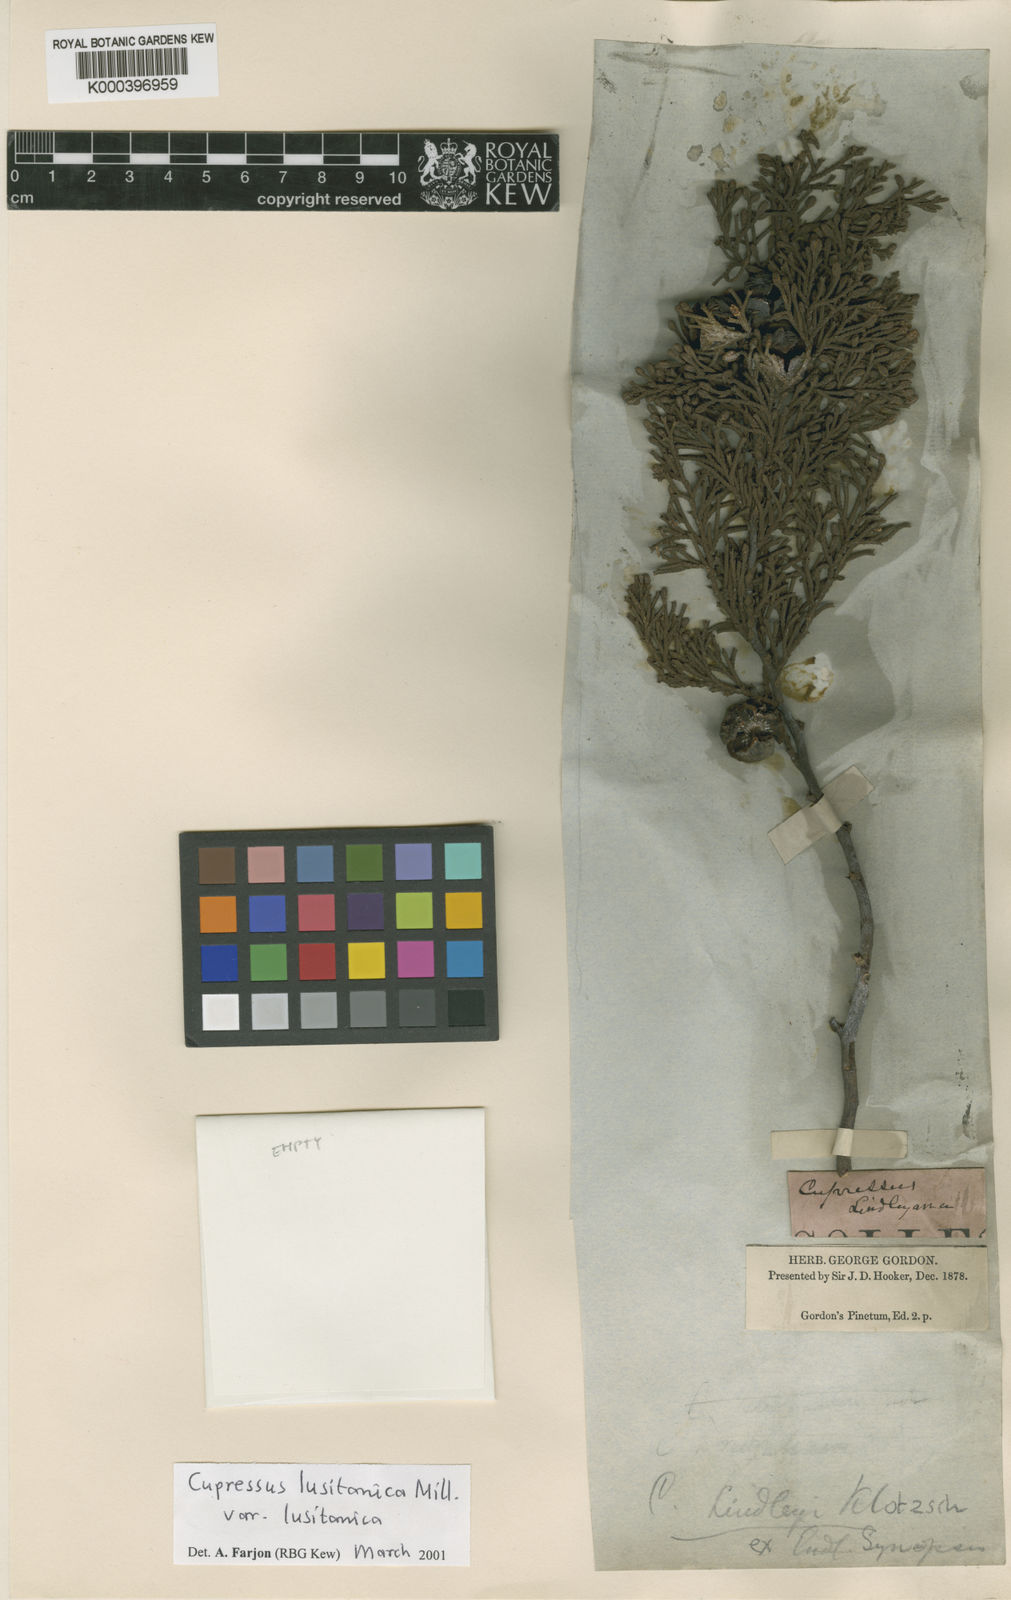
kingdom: Plantae
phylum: Tracheophyta
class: Pinopsida
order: Pinales
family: Cupressaceae
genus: Cupressus
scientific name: Cupressus lusitanica
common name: Mexican cypress
